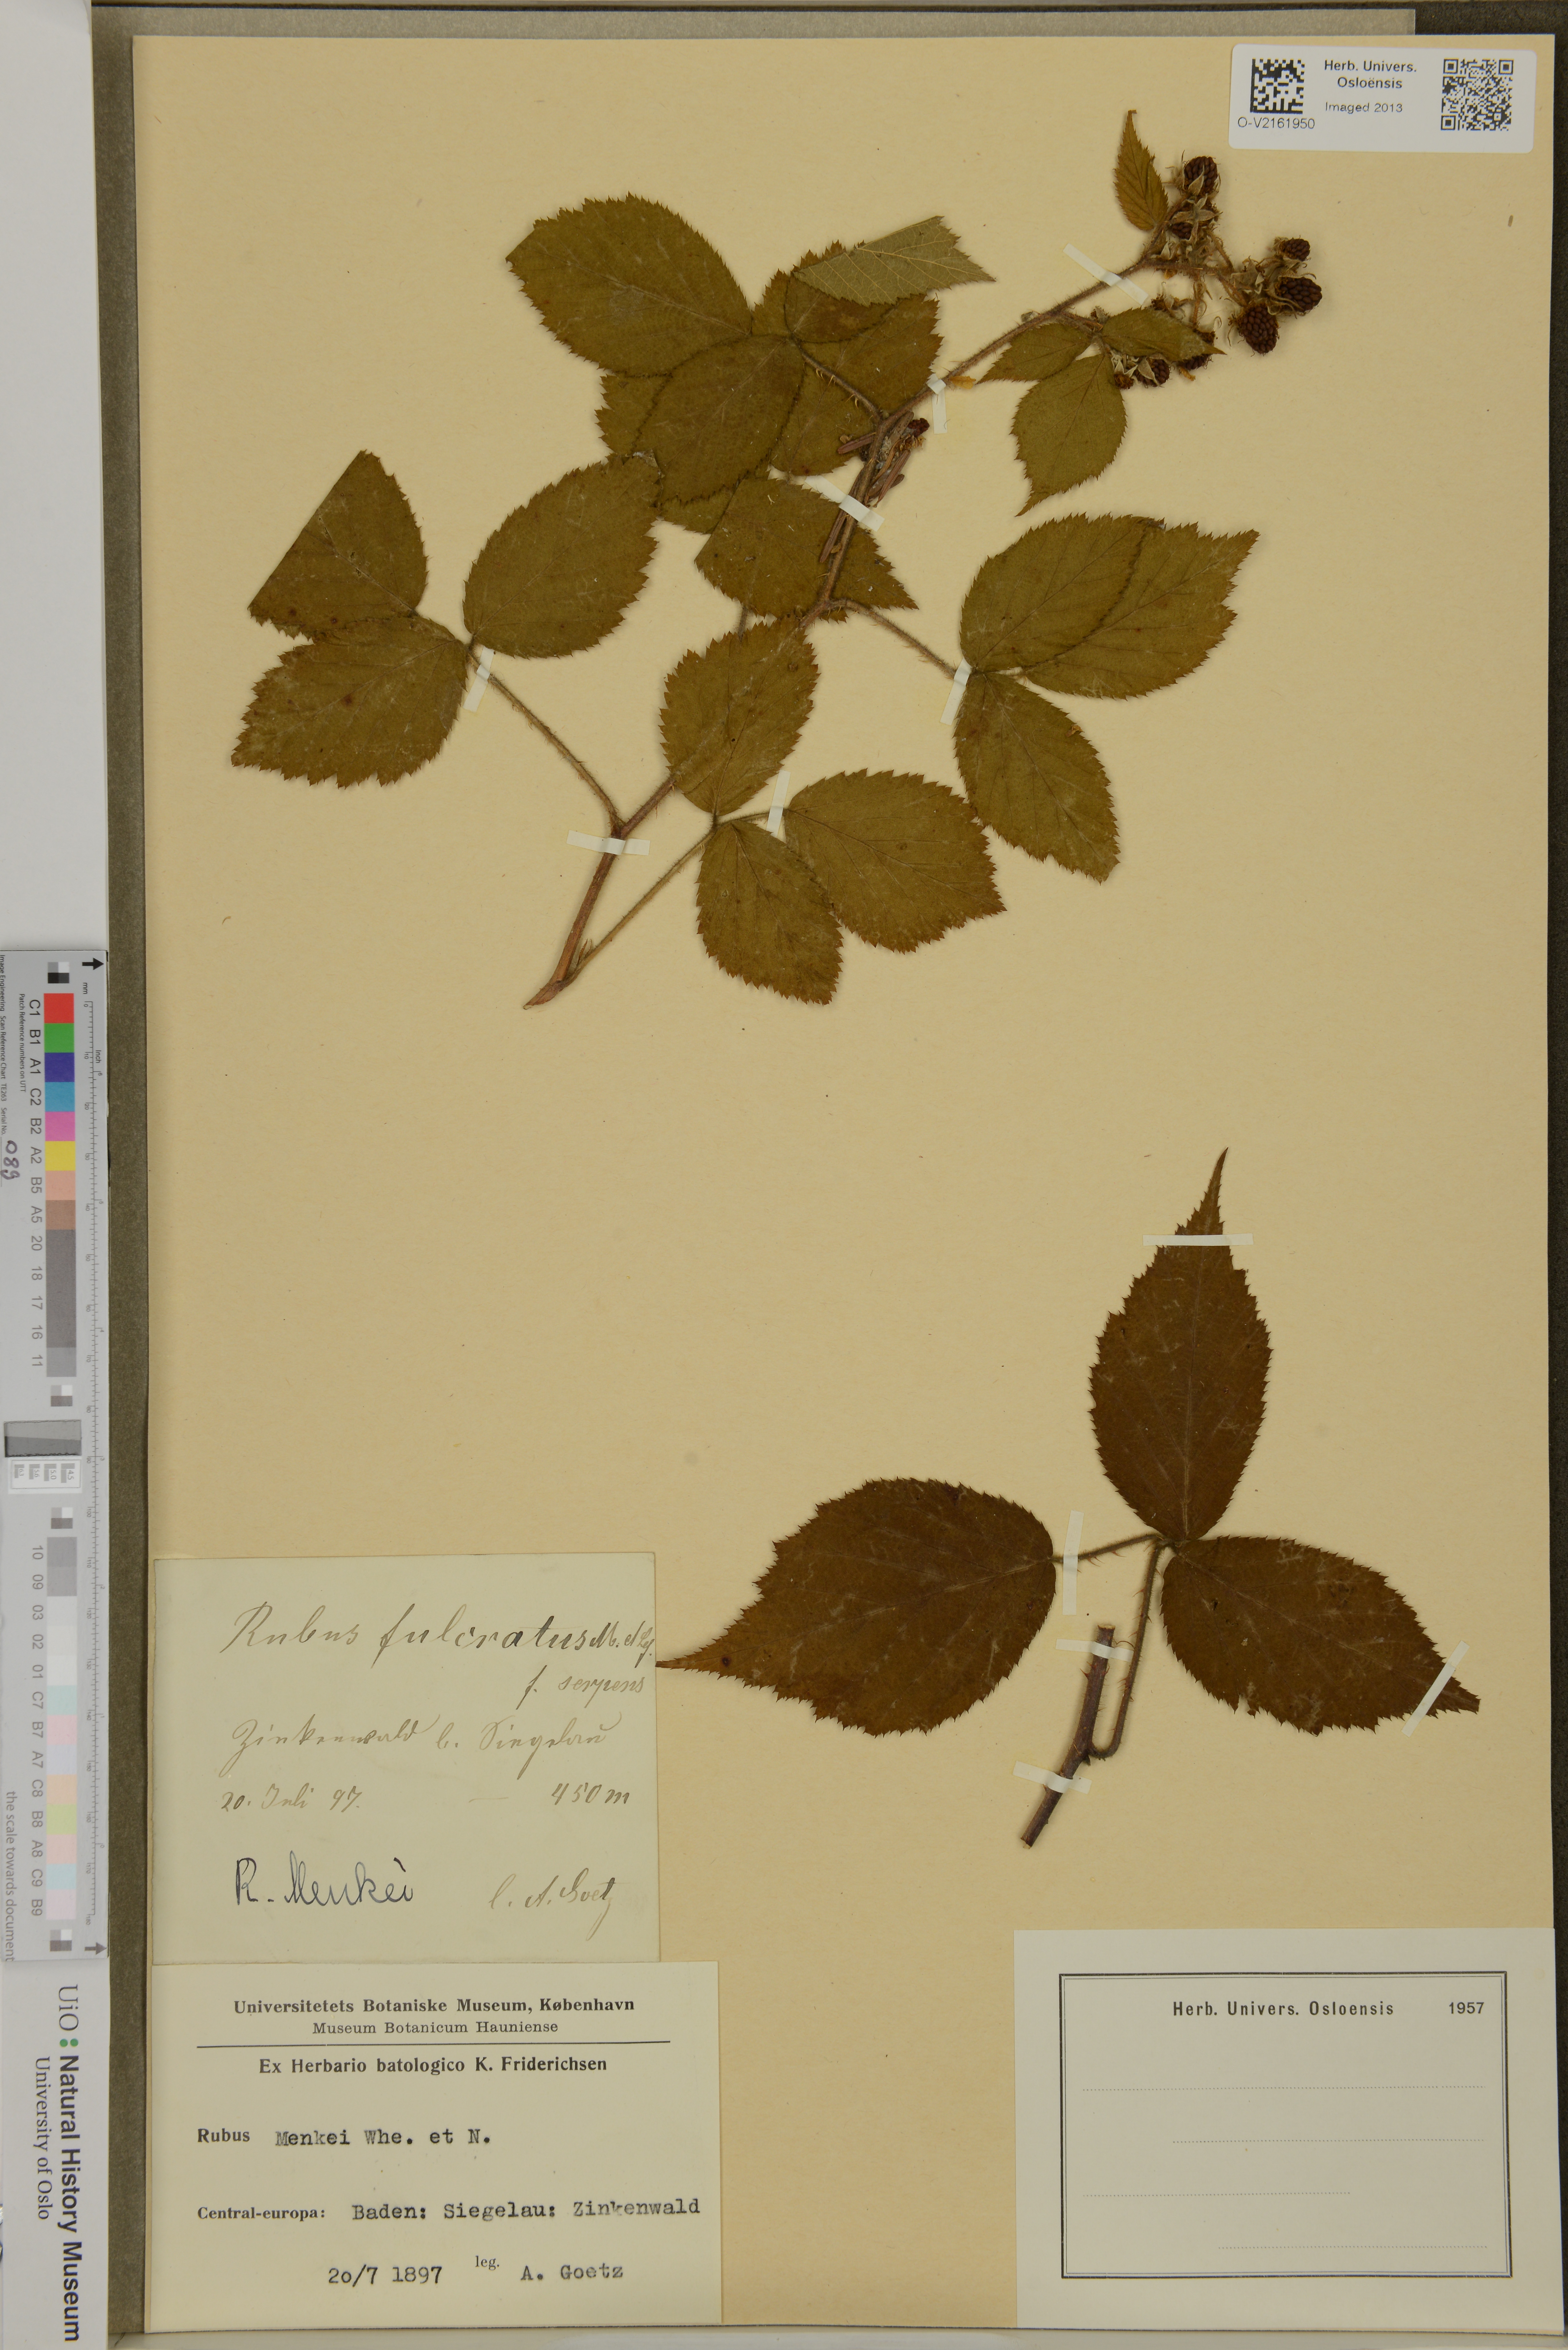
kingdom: Plantae
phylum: Tracheophyta
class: Magnoliopsida
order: Rosales
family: Rosaceae
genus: Rubus
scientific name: Rubus
